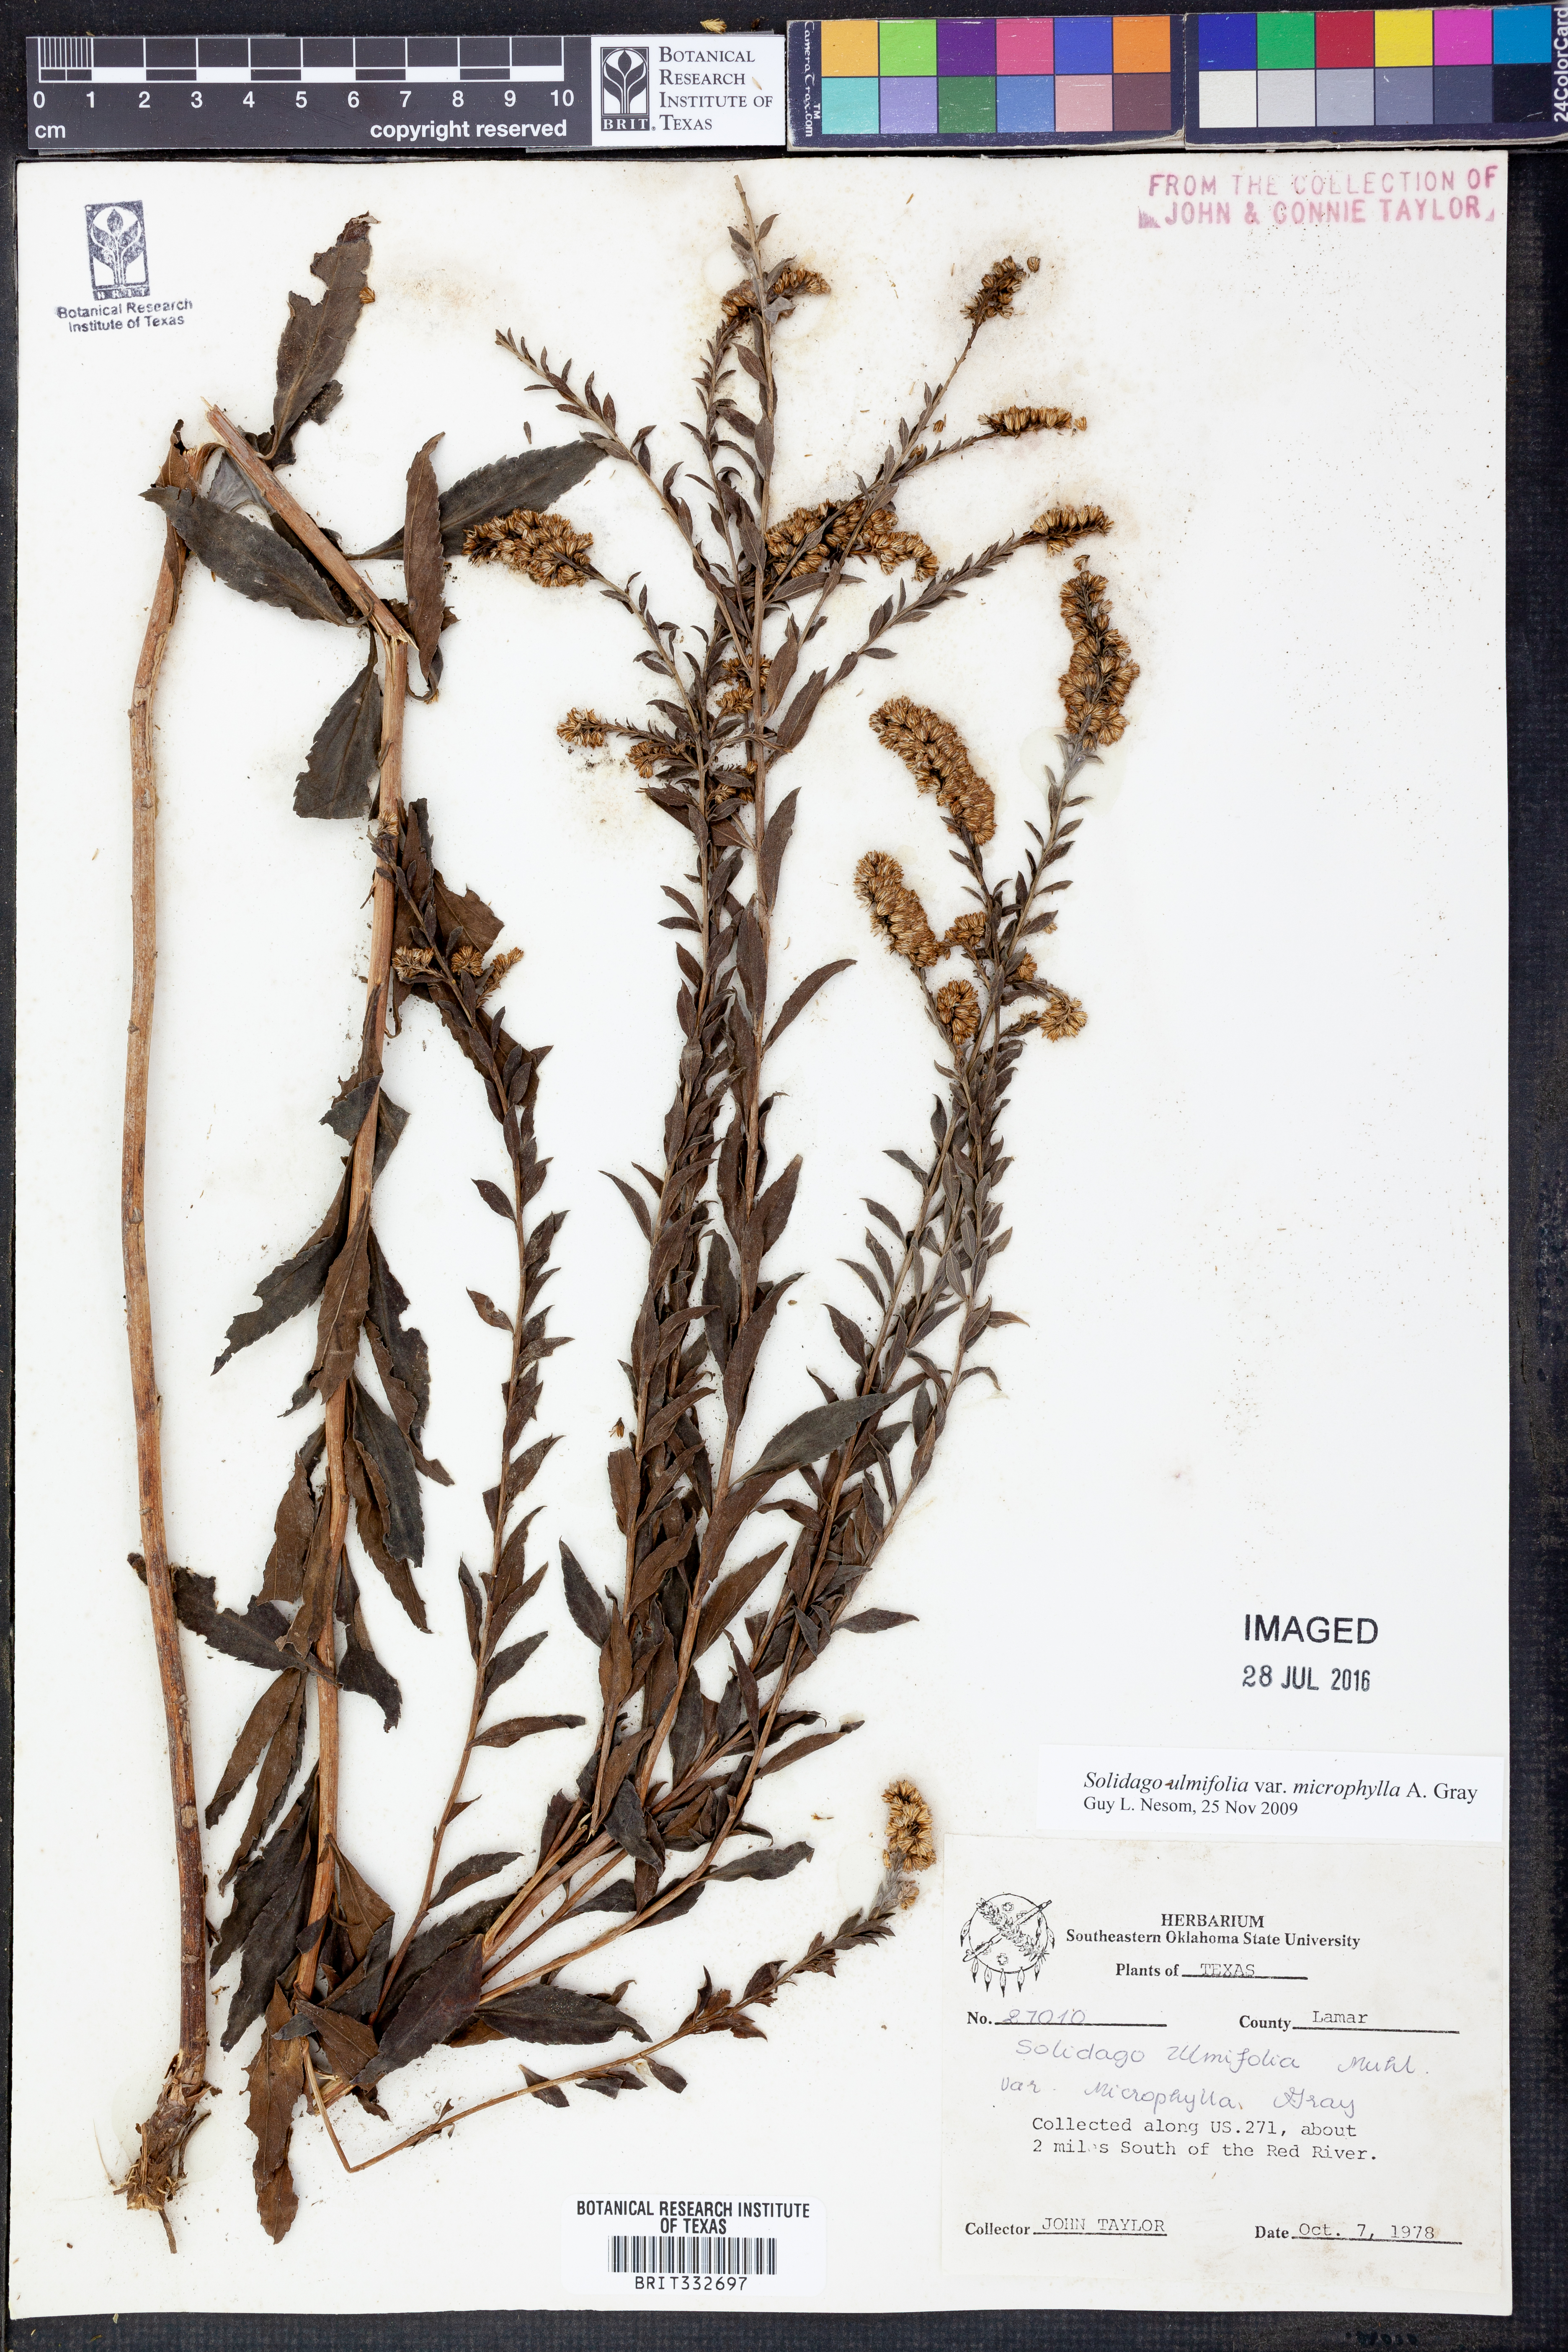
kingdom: Plantae
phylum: Tracheophyta
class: Magnoliopsida
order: Asterales
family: Asteraceae
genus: Solidago
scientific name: Solidago delicatula
